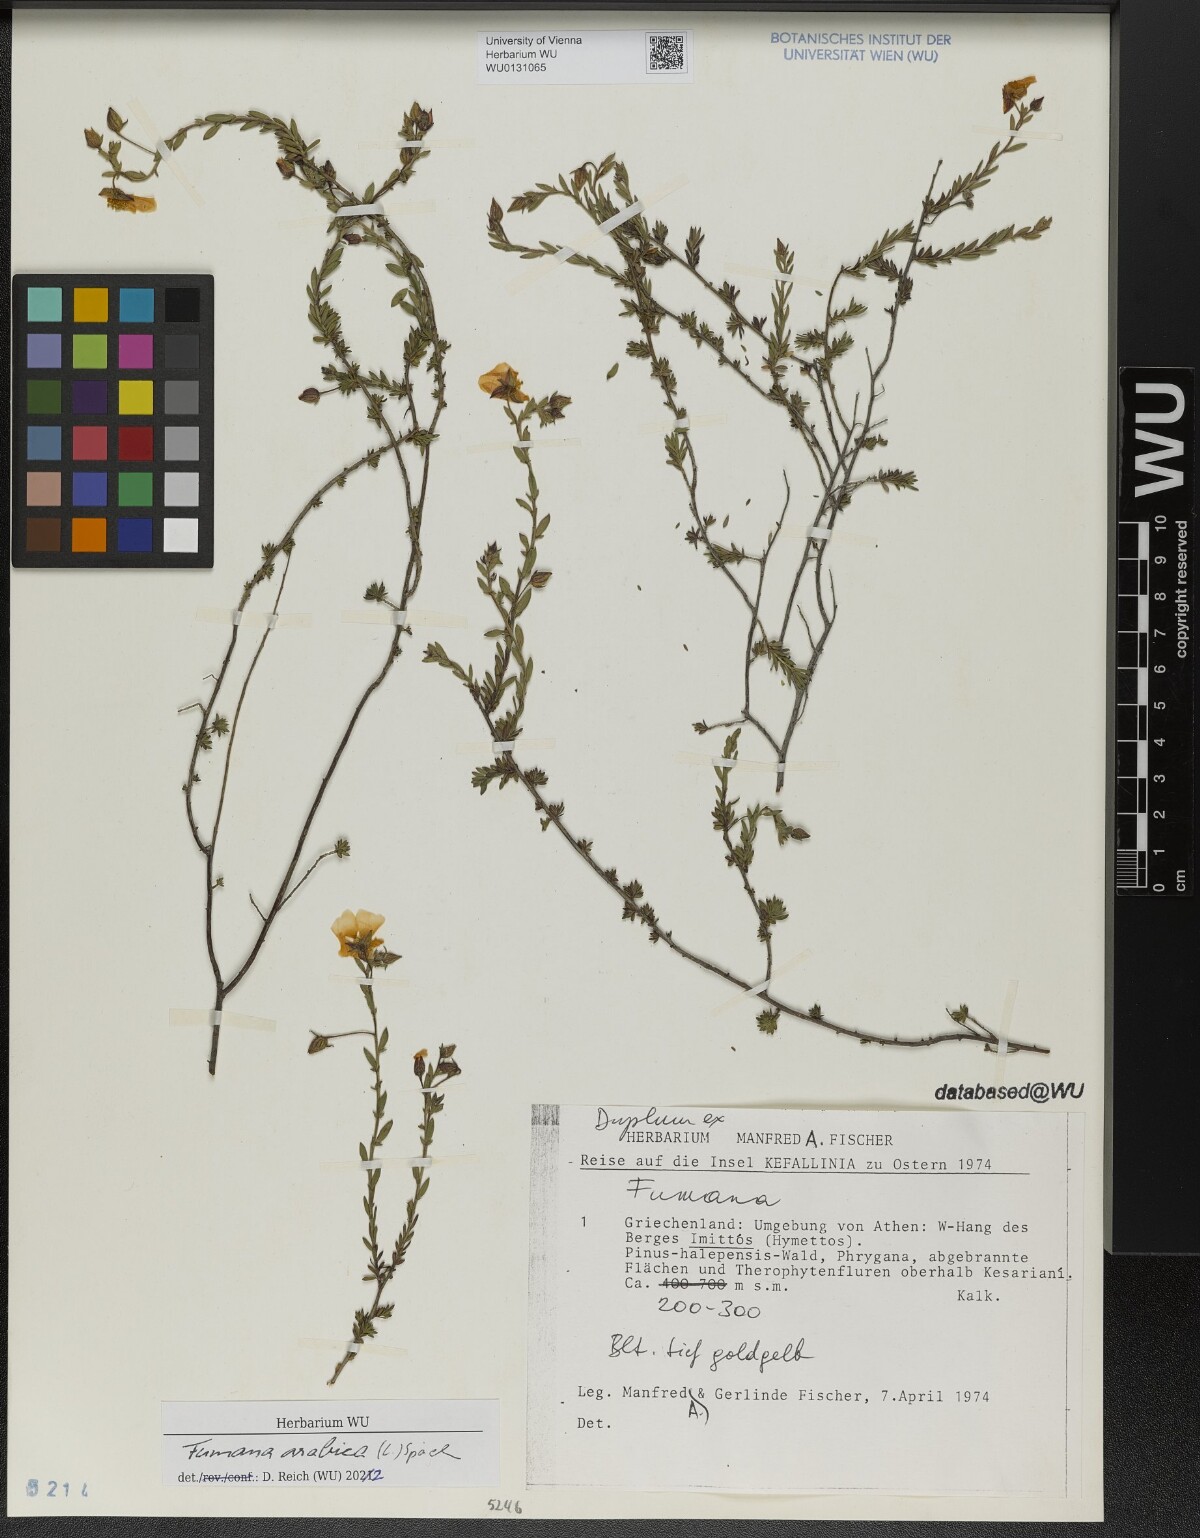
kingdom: Plantae
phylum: Tracheophyta
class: Magnoliopsida
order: Malvales
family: Cistaceae
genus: Fumana
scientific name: Fumana arabica
